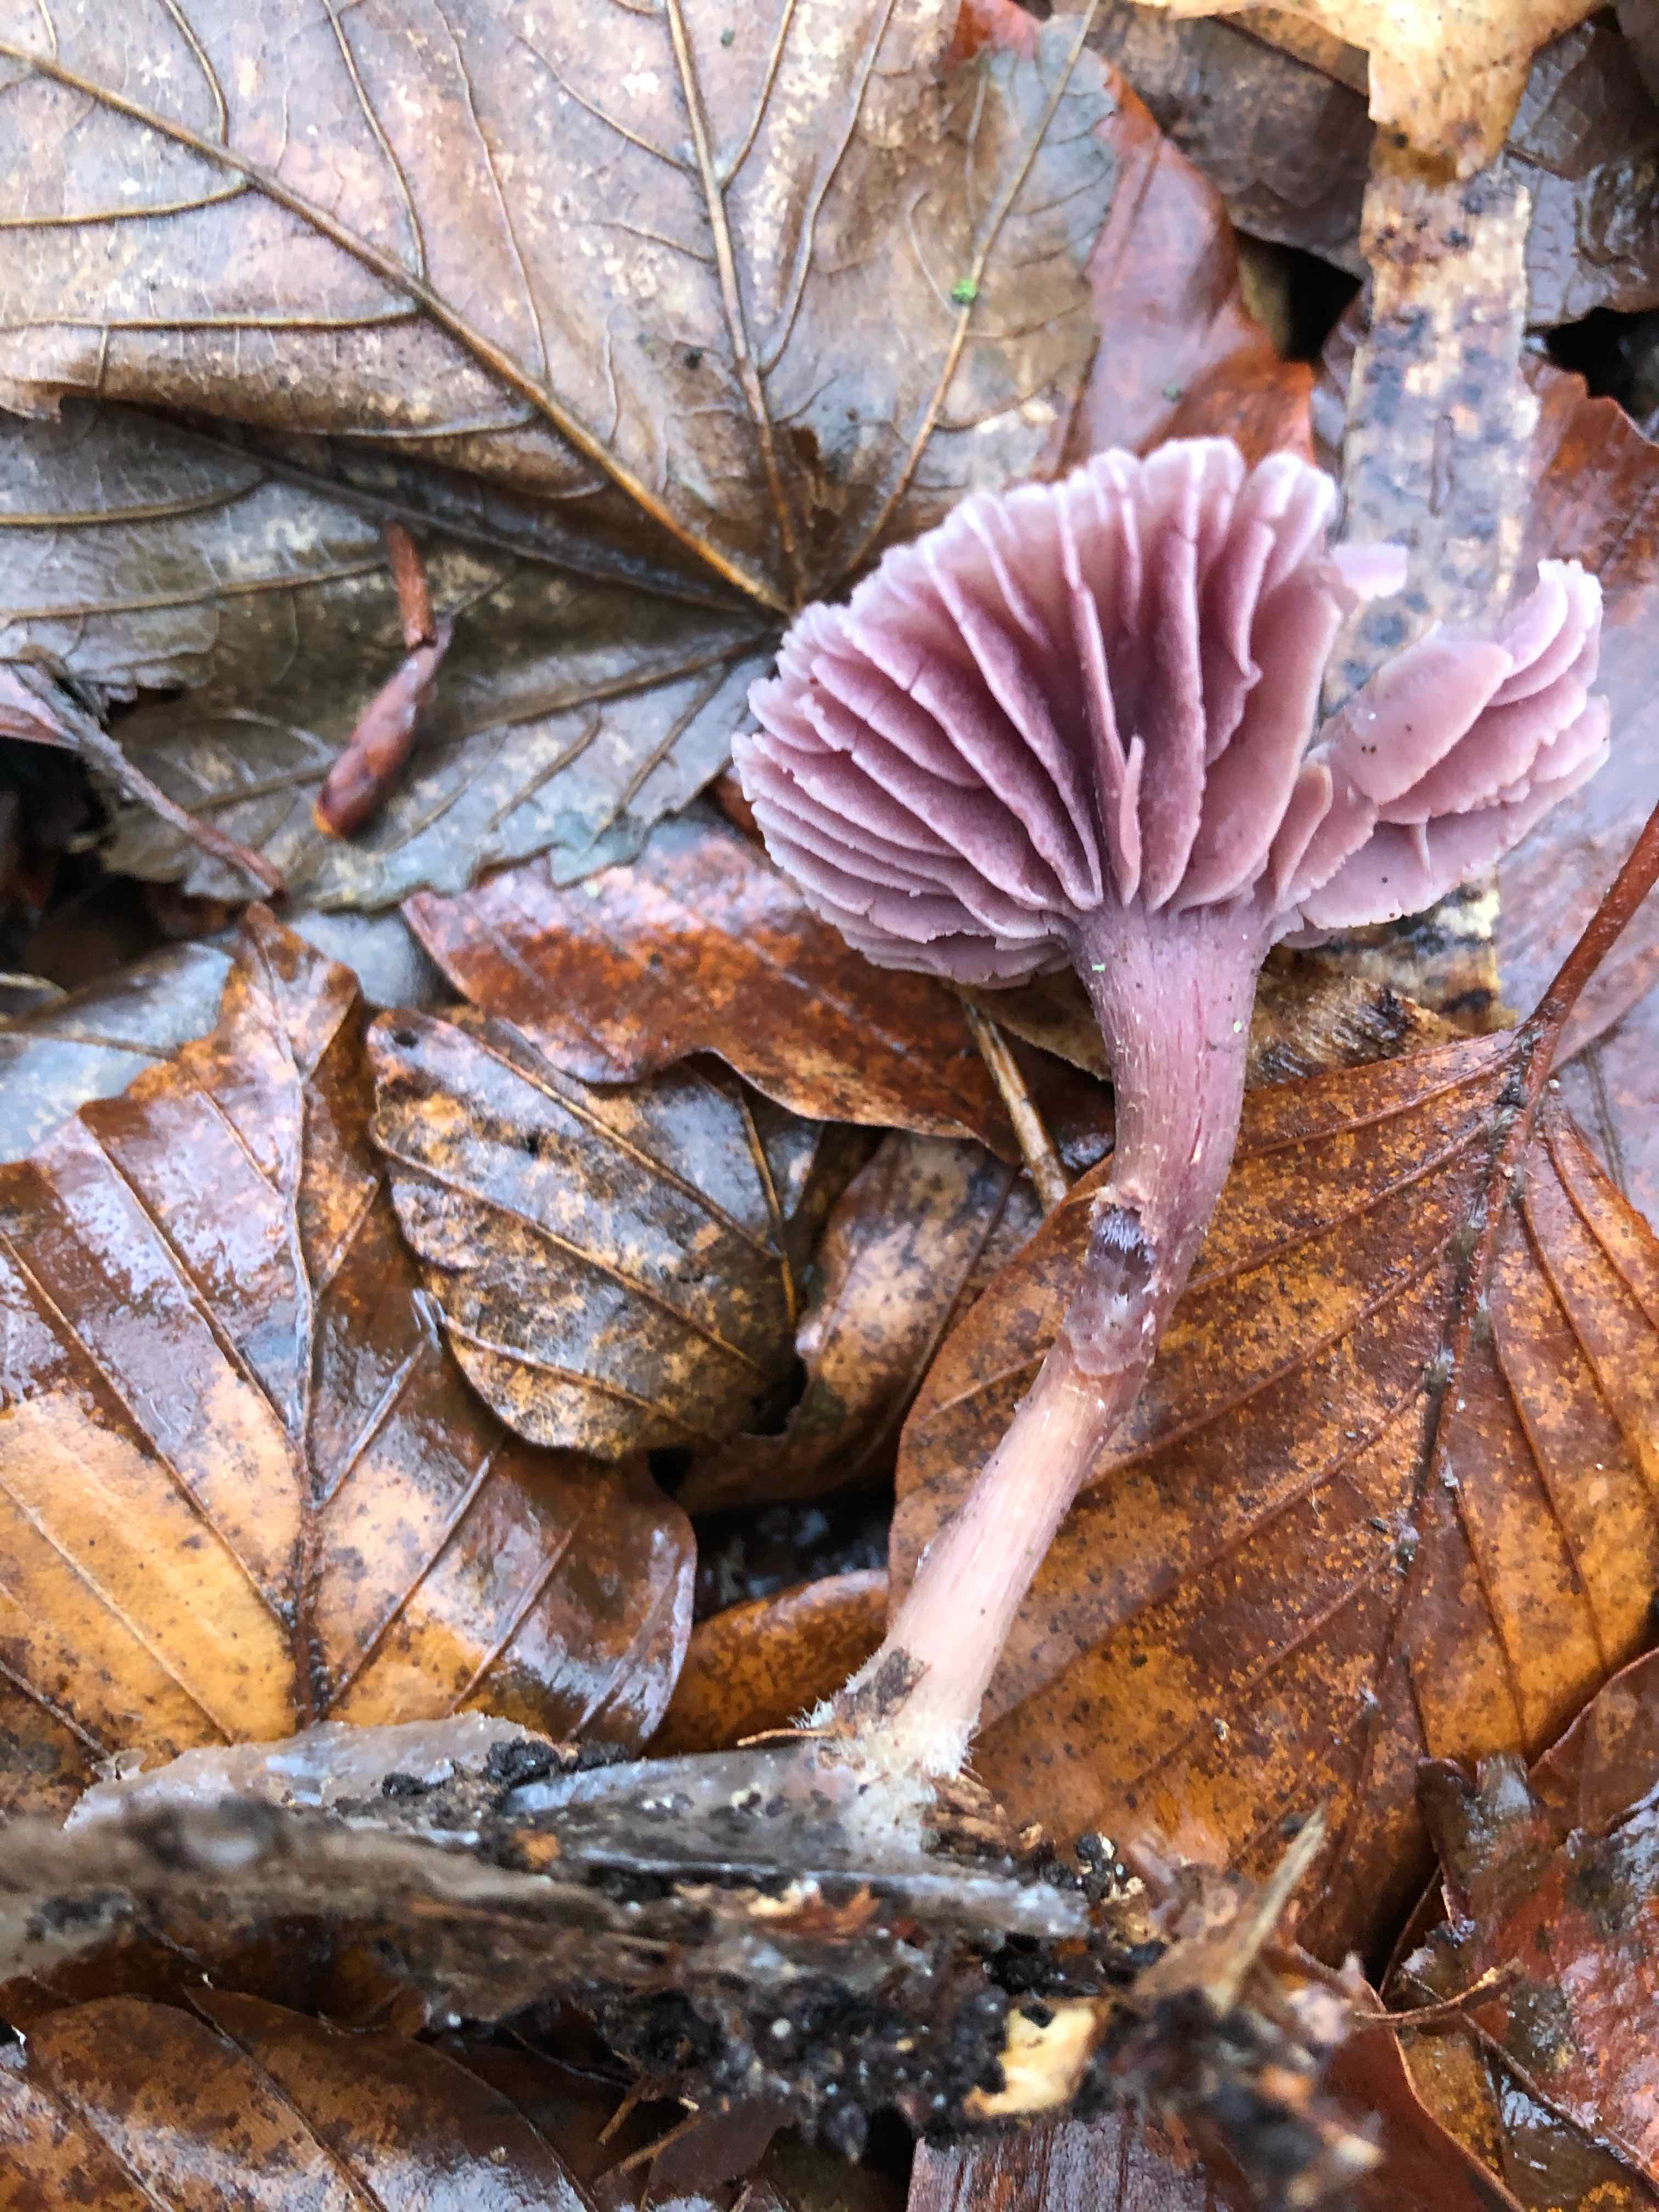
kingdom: Fungi
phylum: Basidiomycota
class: Agaricomycetes
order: Agaricales
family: Hydnangiaceae
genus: Laccaria
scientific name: Laccaria amethystina
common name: violet ametysthat
